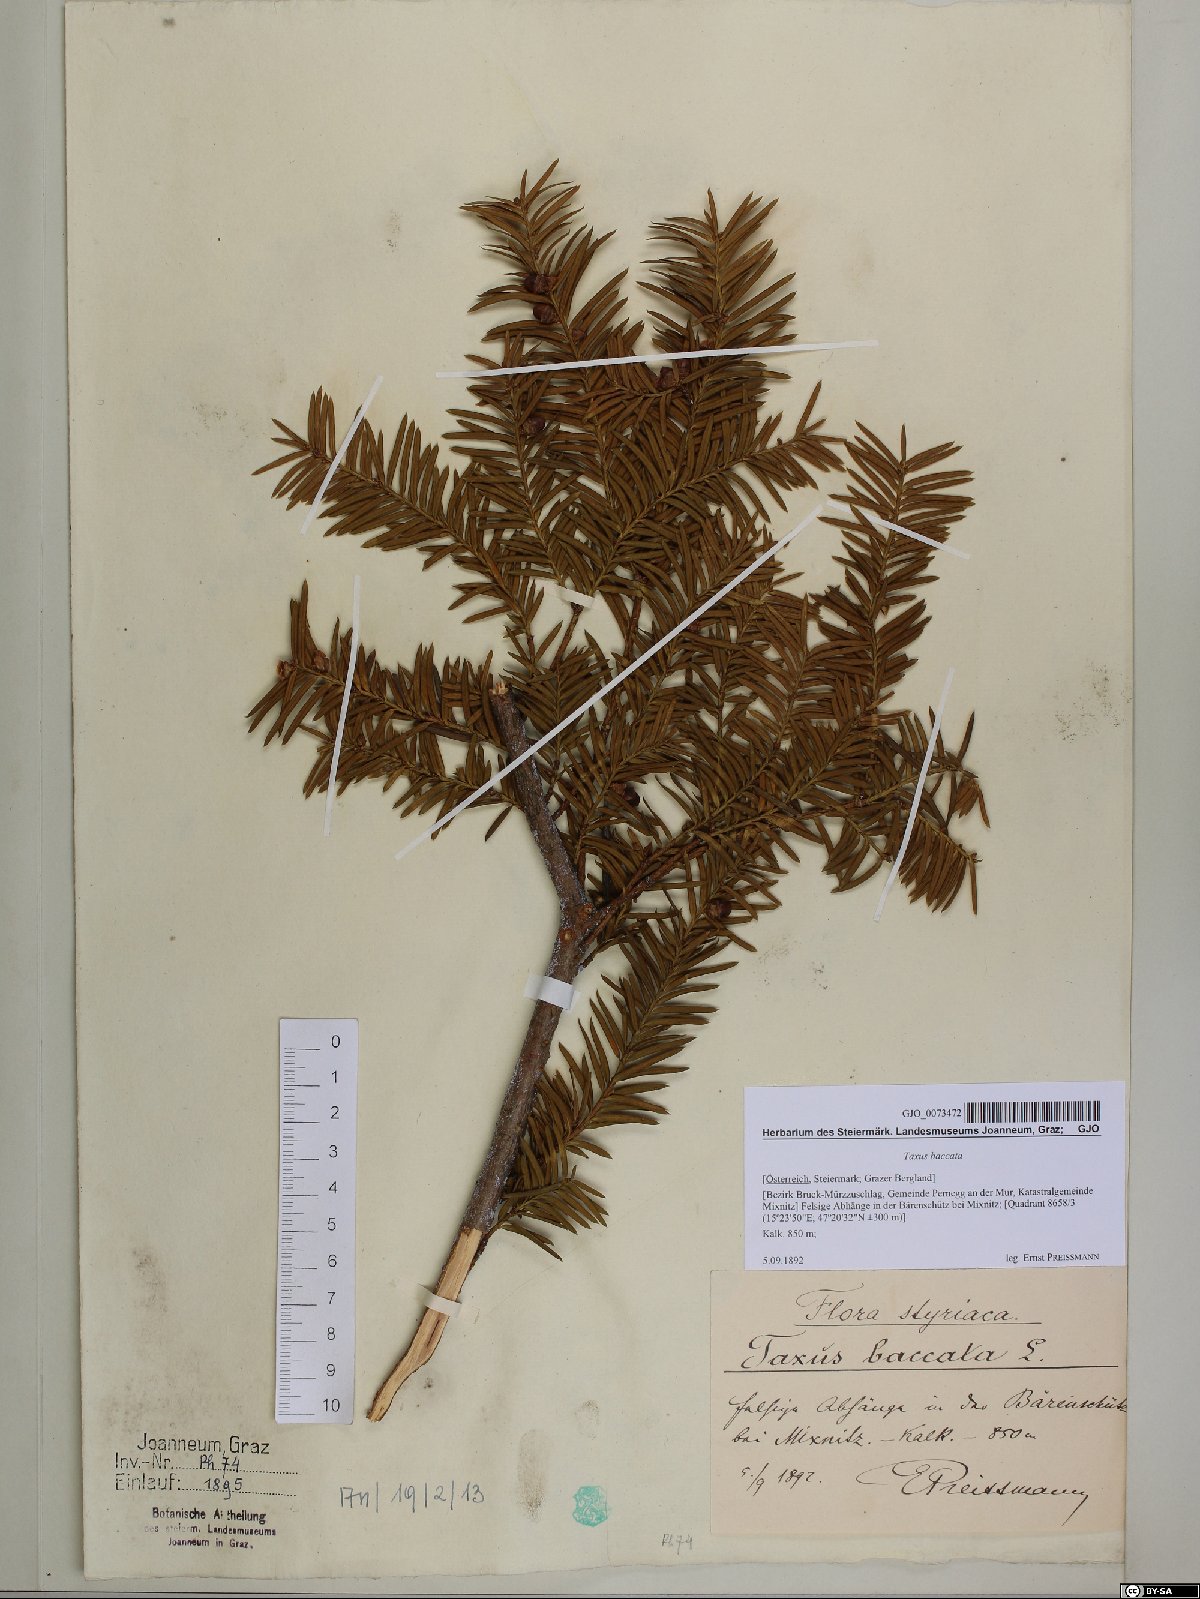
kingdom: Plantae
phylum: Tracheophyta
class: Pinopsida
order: Pinales
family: Taxaceae
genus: Taxus
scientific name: Taxus baccata
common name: Yew
